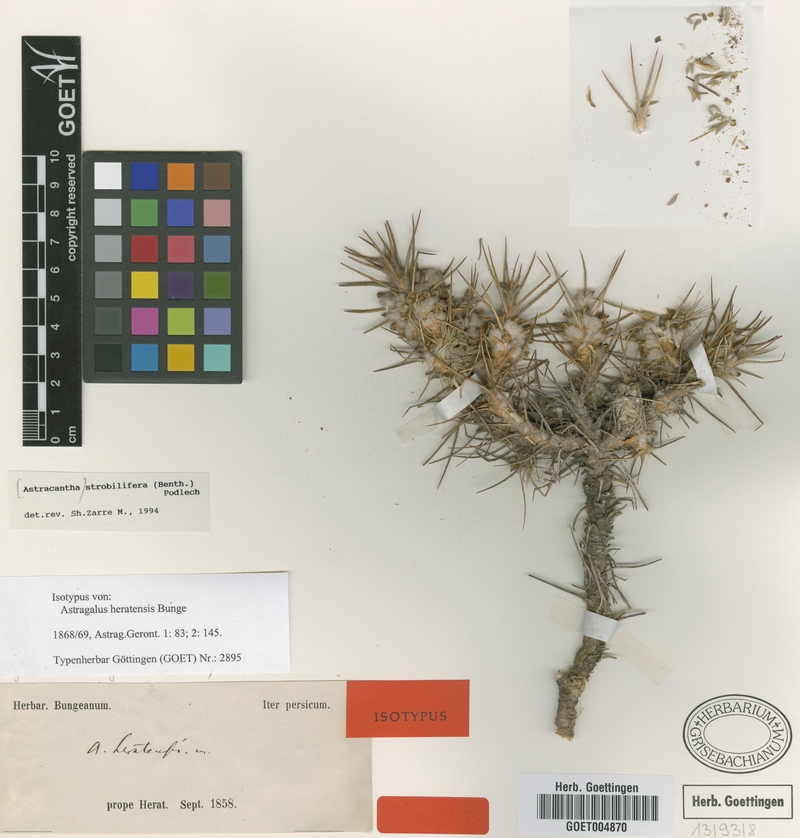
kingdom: Plantae
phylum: Tracheophyta
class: Magnoliopsida
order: Fabales
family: Fabaceae
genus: Astragalus
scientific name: Astragalus strobiliferus
